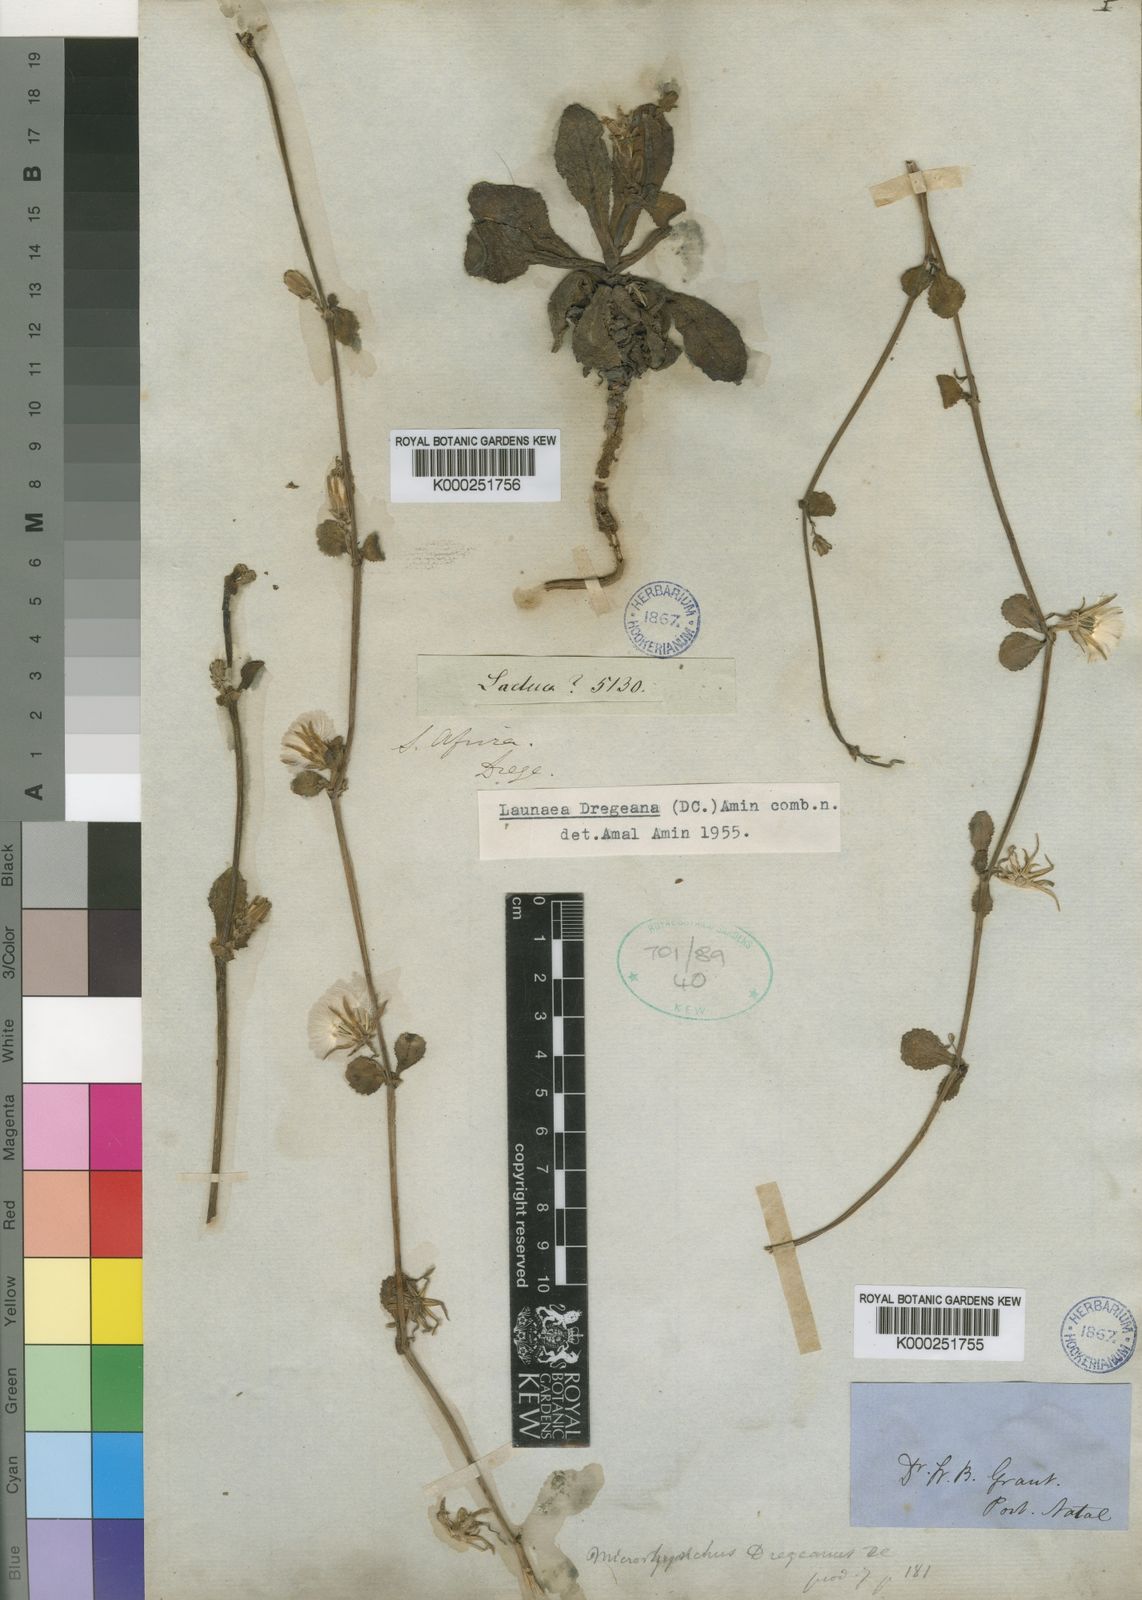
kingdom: Plantae
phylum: Tracheophyta
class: Magnoliopsida
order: Asterales
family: Asteraceae
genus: Launaea
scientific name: Launaea sarmentosa
